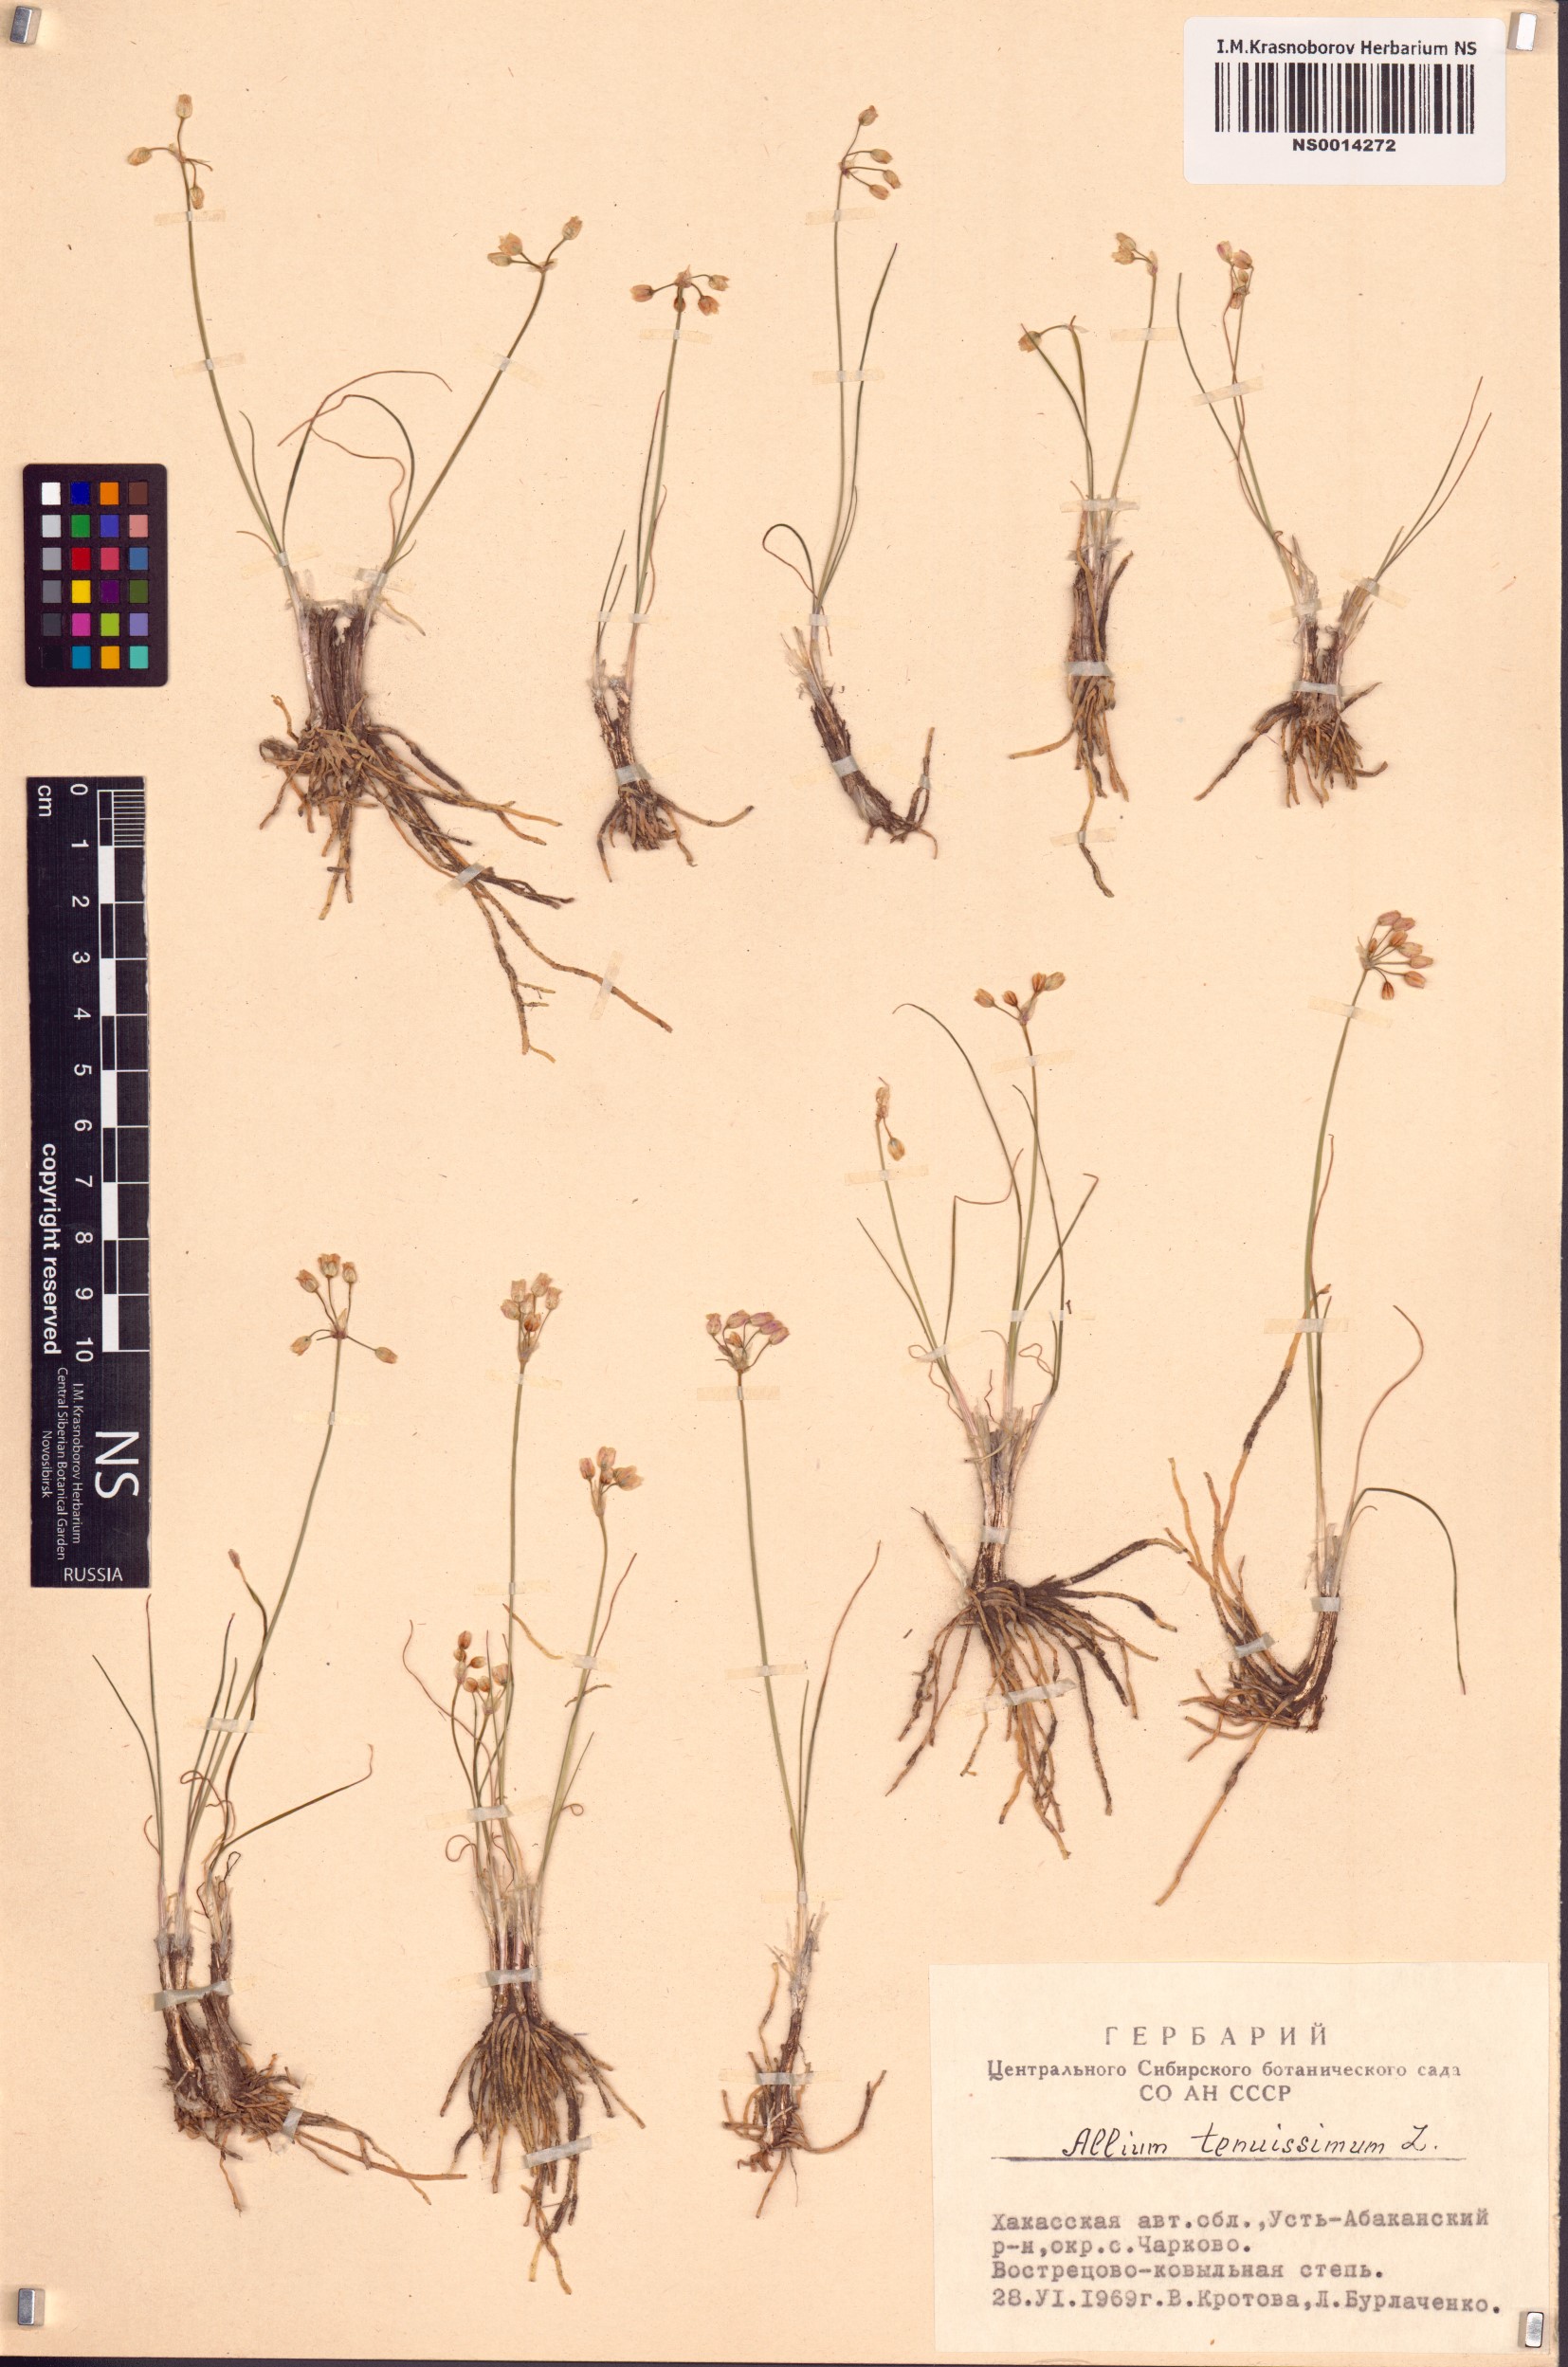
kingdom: Plantae
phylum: Tracheophyta
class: Liliopsida
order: Asparagales
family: Amaryllidaceae
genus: Allium
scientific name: Allium tenuissimum
